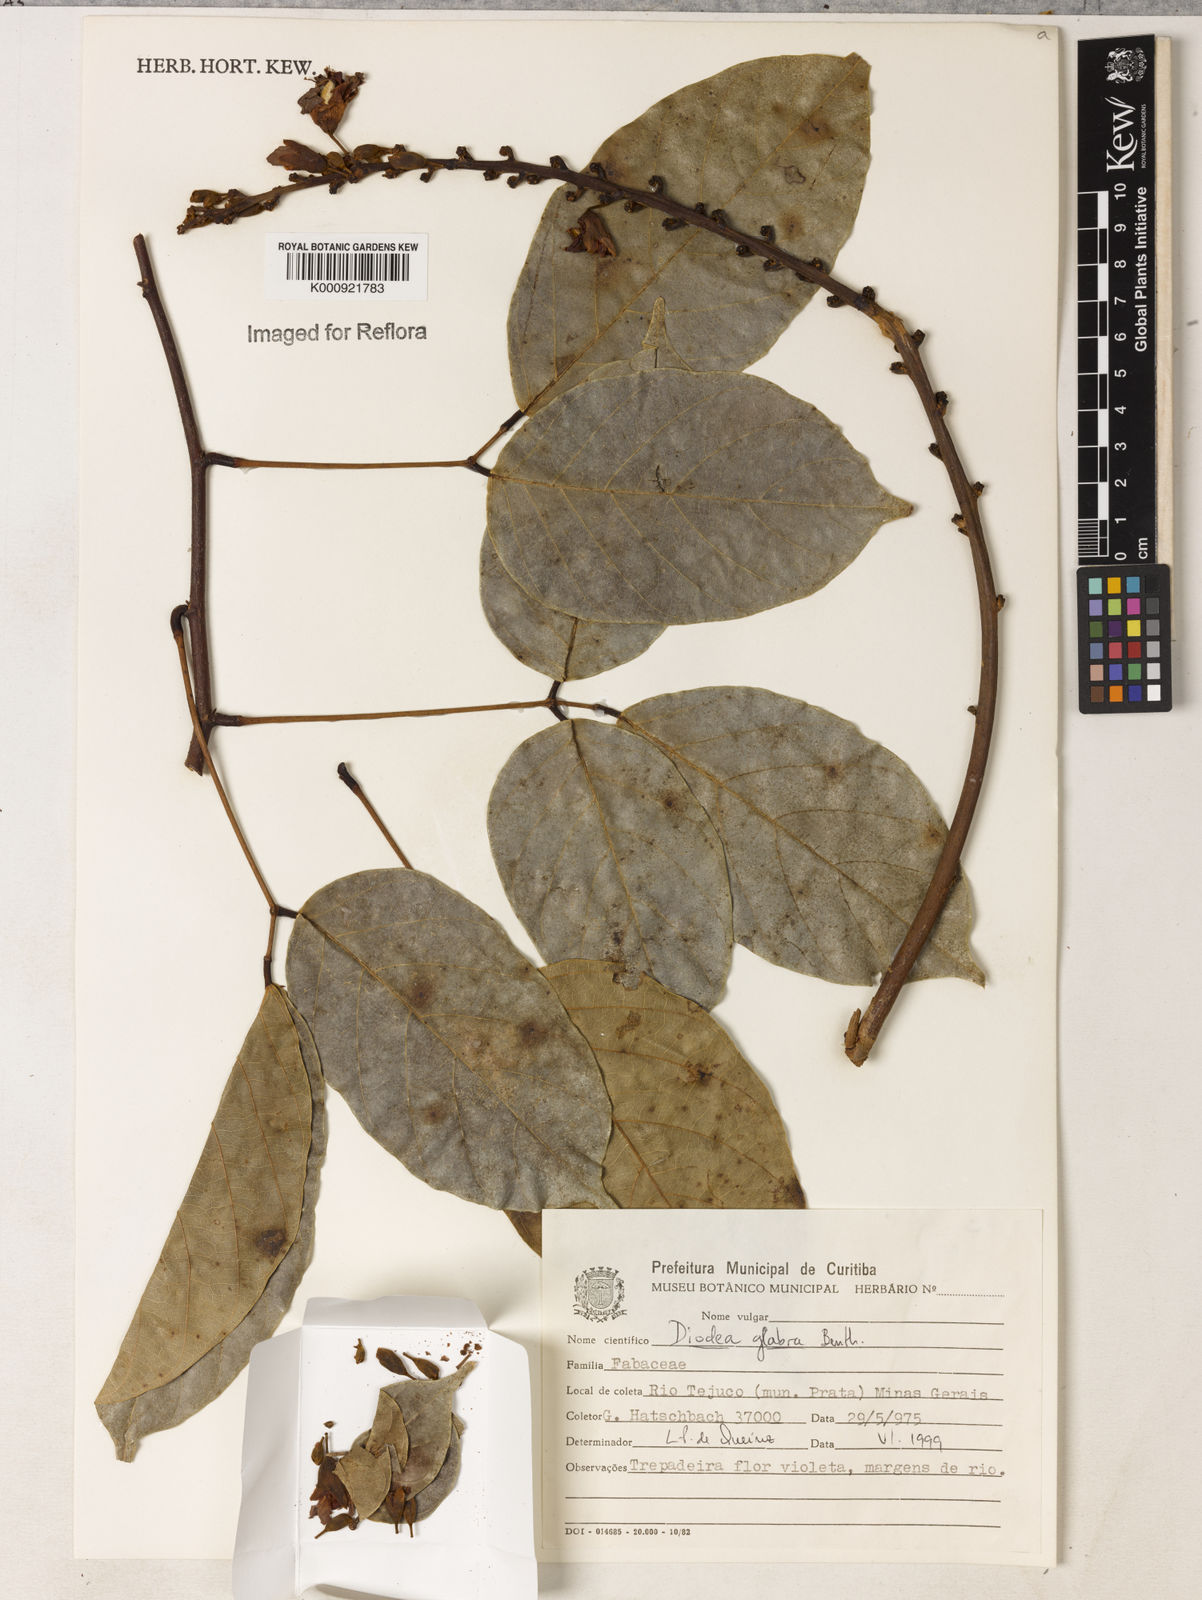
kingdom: Plantae
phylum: Tracheophyta
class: Magnoliopsida
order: Fabales
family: Fabaceae
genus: Macropsychanthus
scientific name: Macropsychanthus glaber
